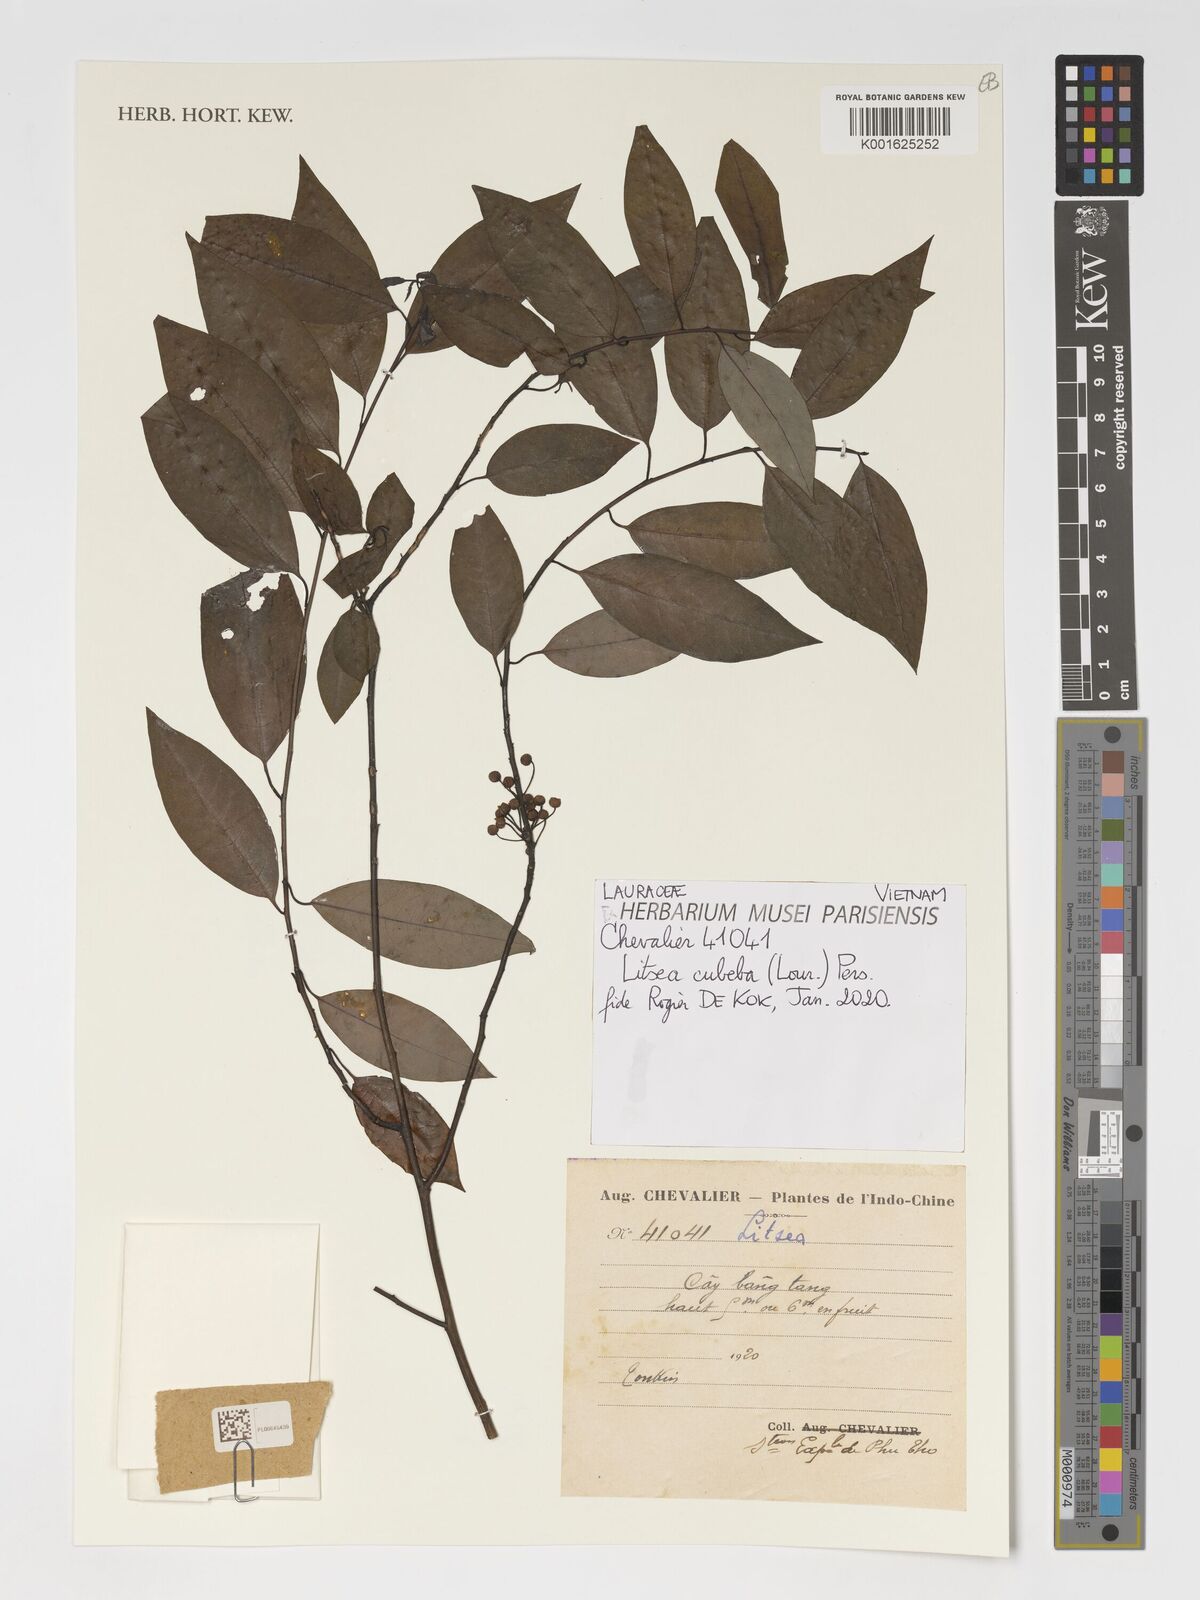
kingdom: Plantae
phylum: Tracheophyta
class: Magnoliopsida
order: Laurales
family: Lauraceae
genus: Litsea
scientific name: Litsea cubeba
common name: Mountain-pepper
